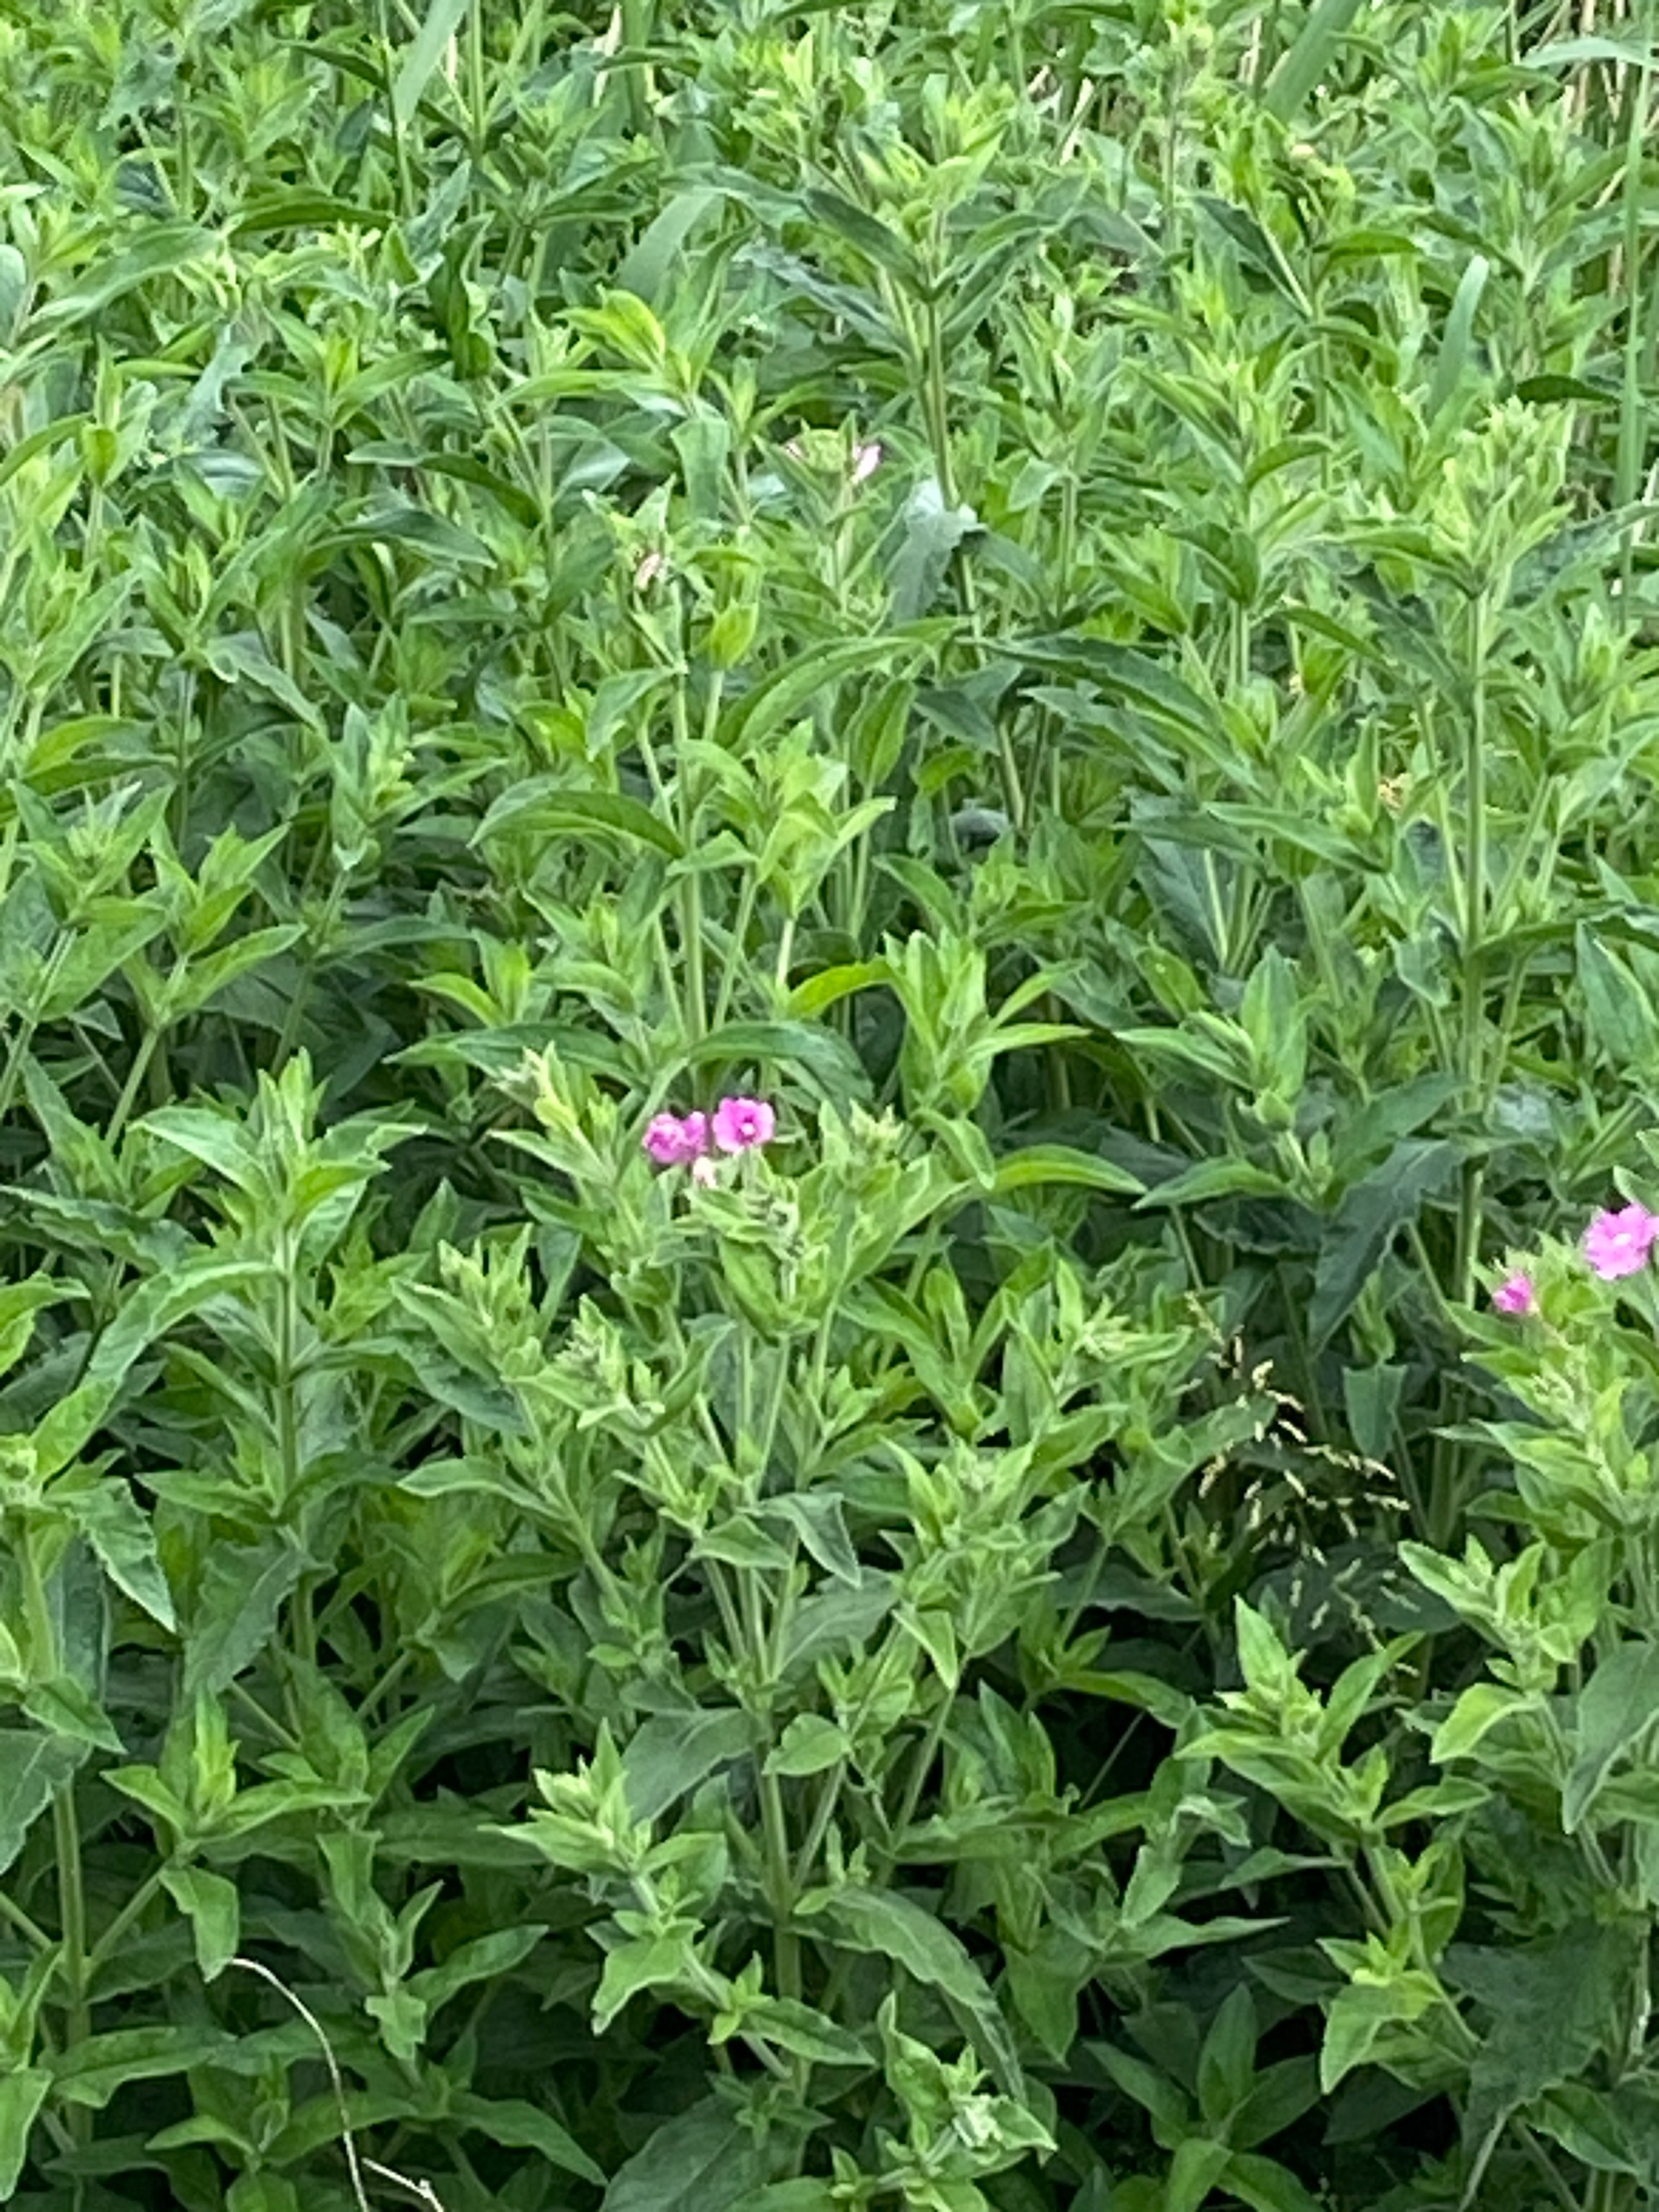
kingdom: Plantae
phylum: Tracheophyta
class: Magnoliopsida
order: Myrtales
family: Onagraceae
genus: Epilobium
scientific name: Epilobium hirsutum
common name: Lådden dueurt
